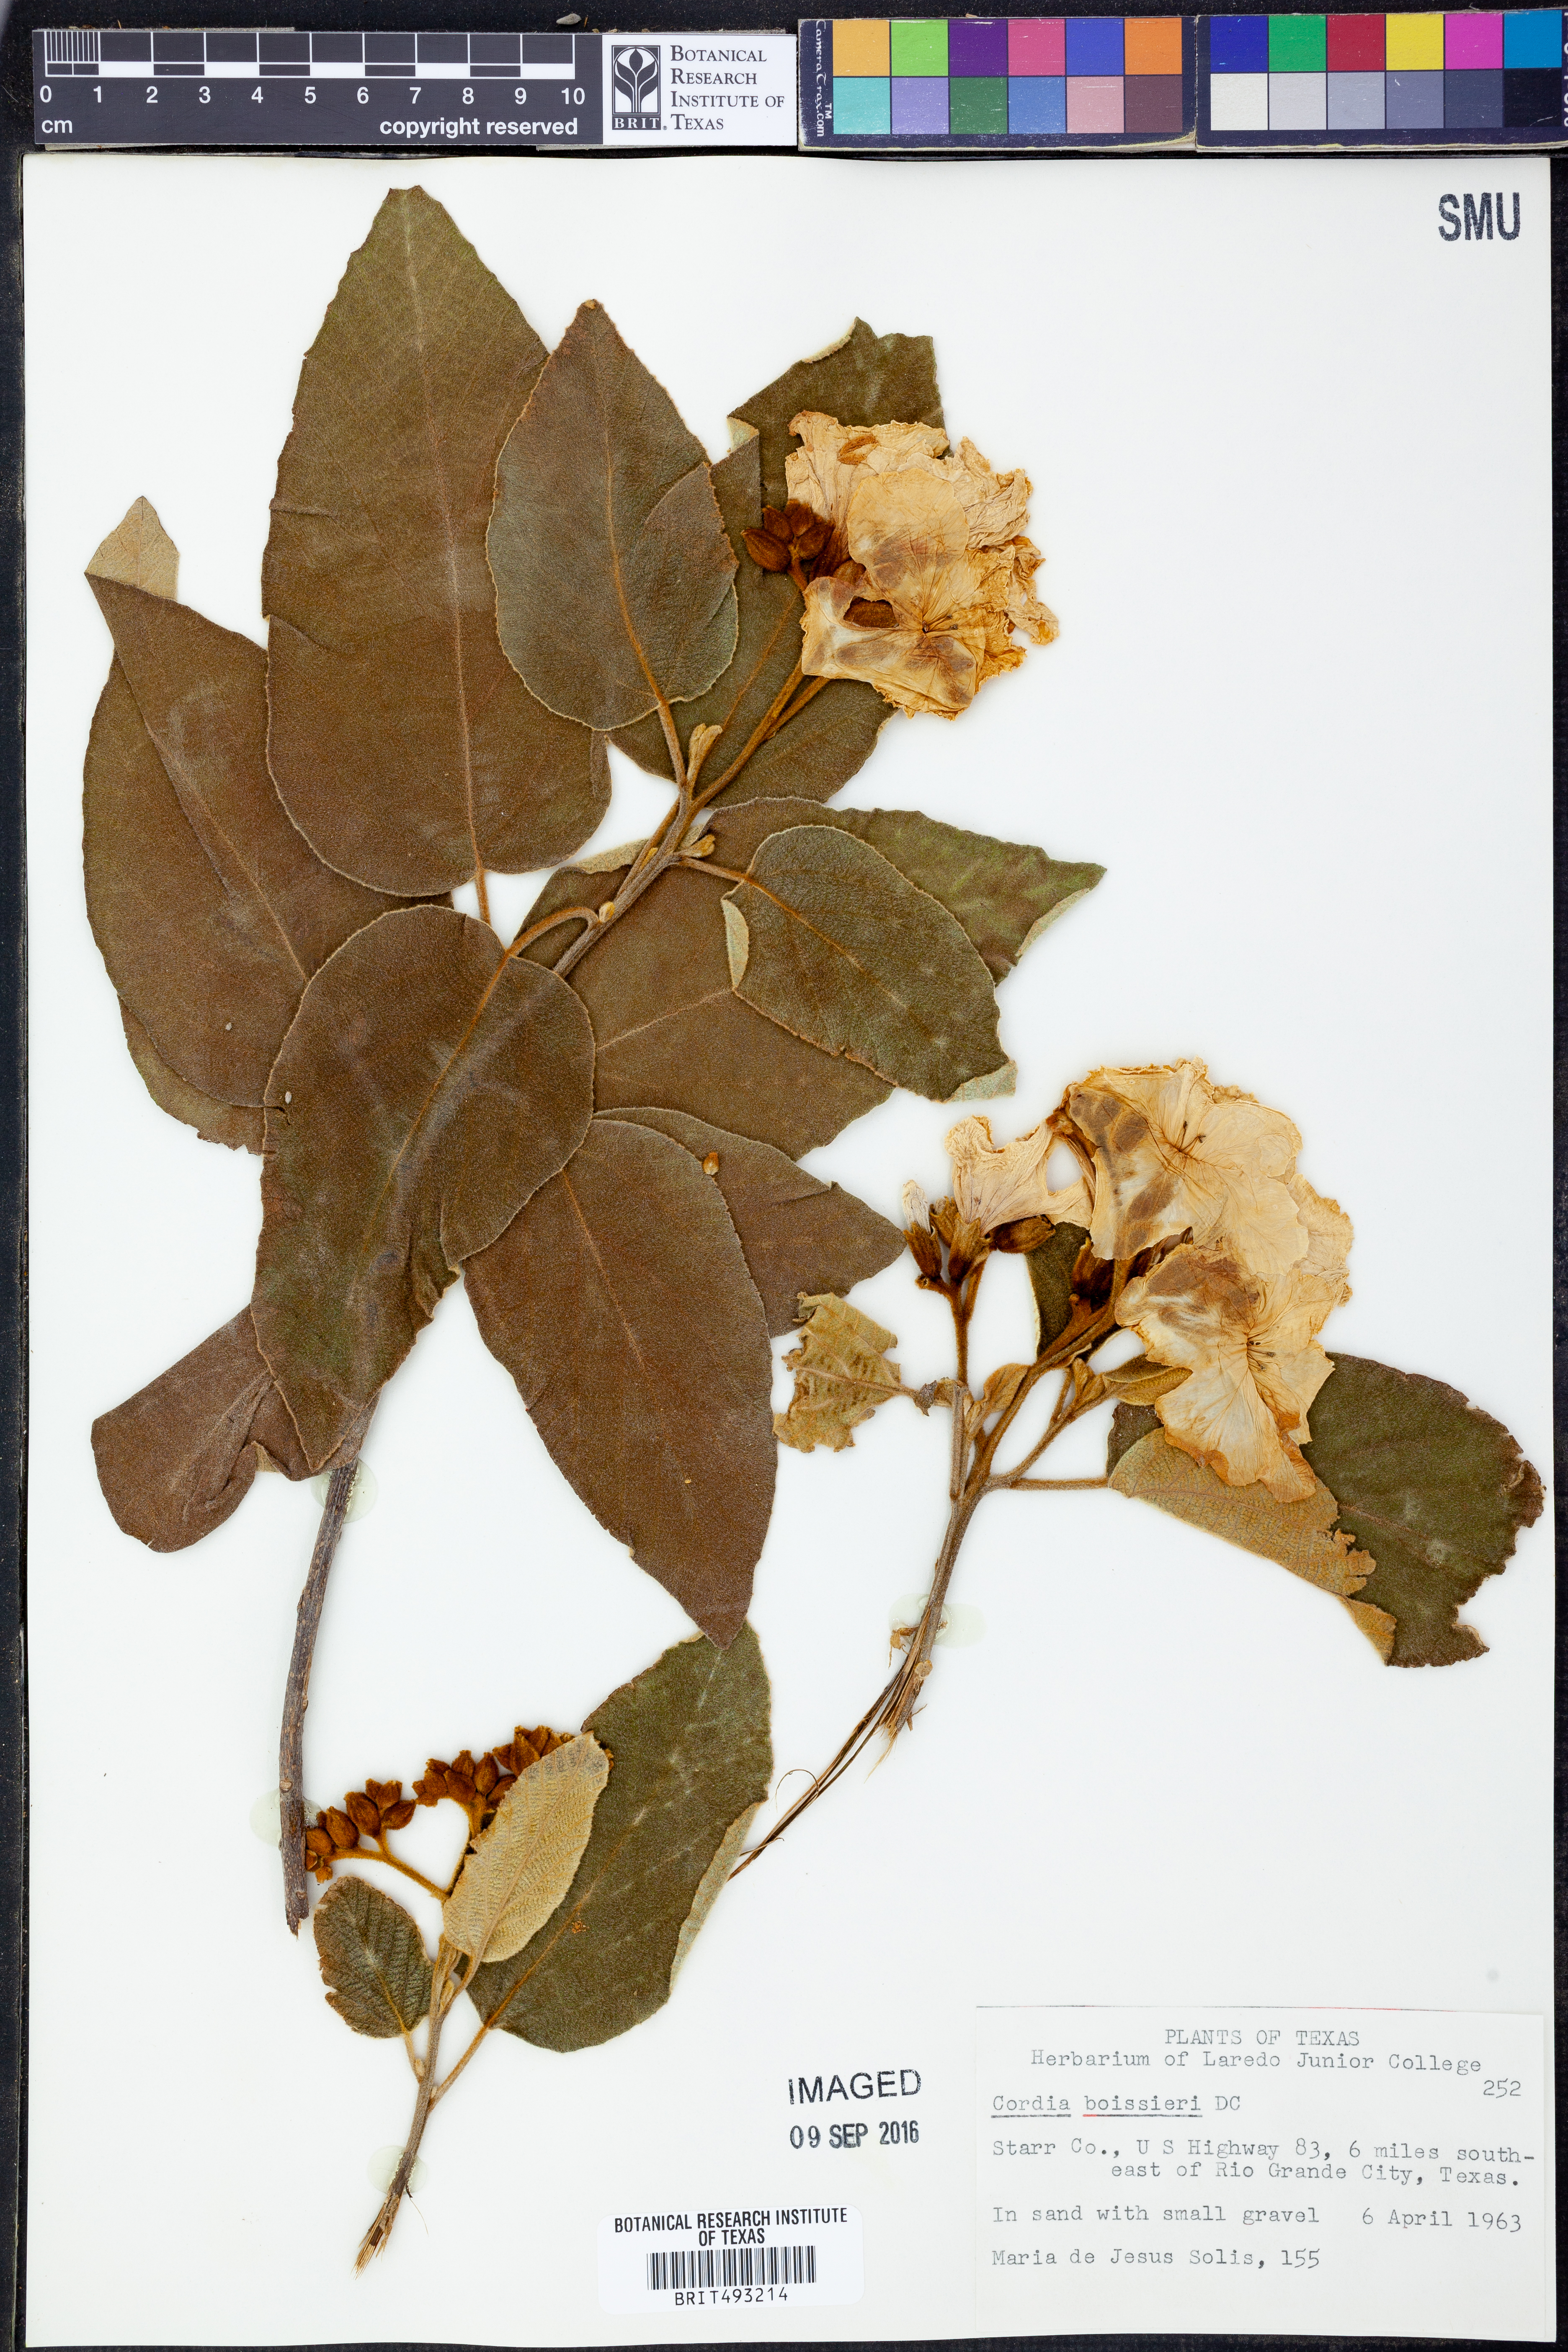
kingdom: Plantae
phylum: Tracheophyta
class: Magnoliopsida
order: Boraginales
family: Cordiaceae
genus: Cordia
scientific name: Cordia boissieri
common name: Mexican-olive
